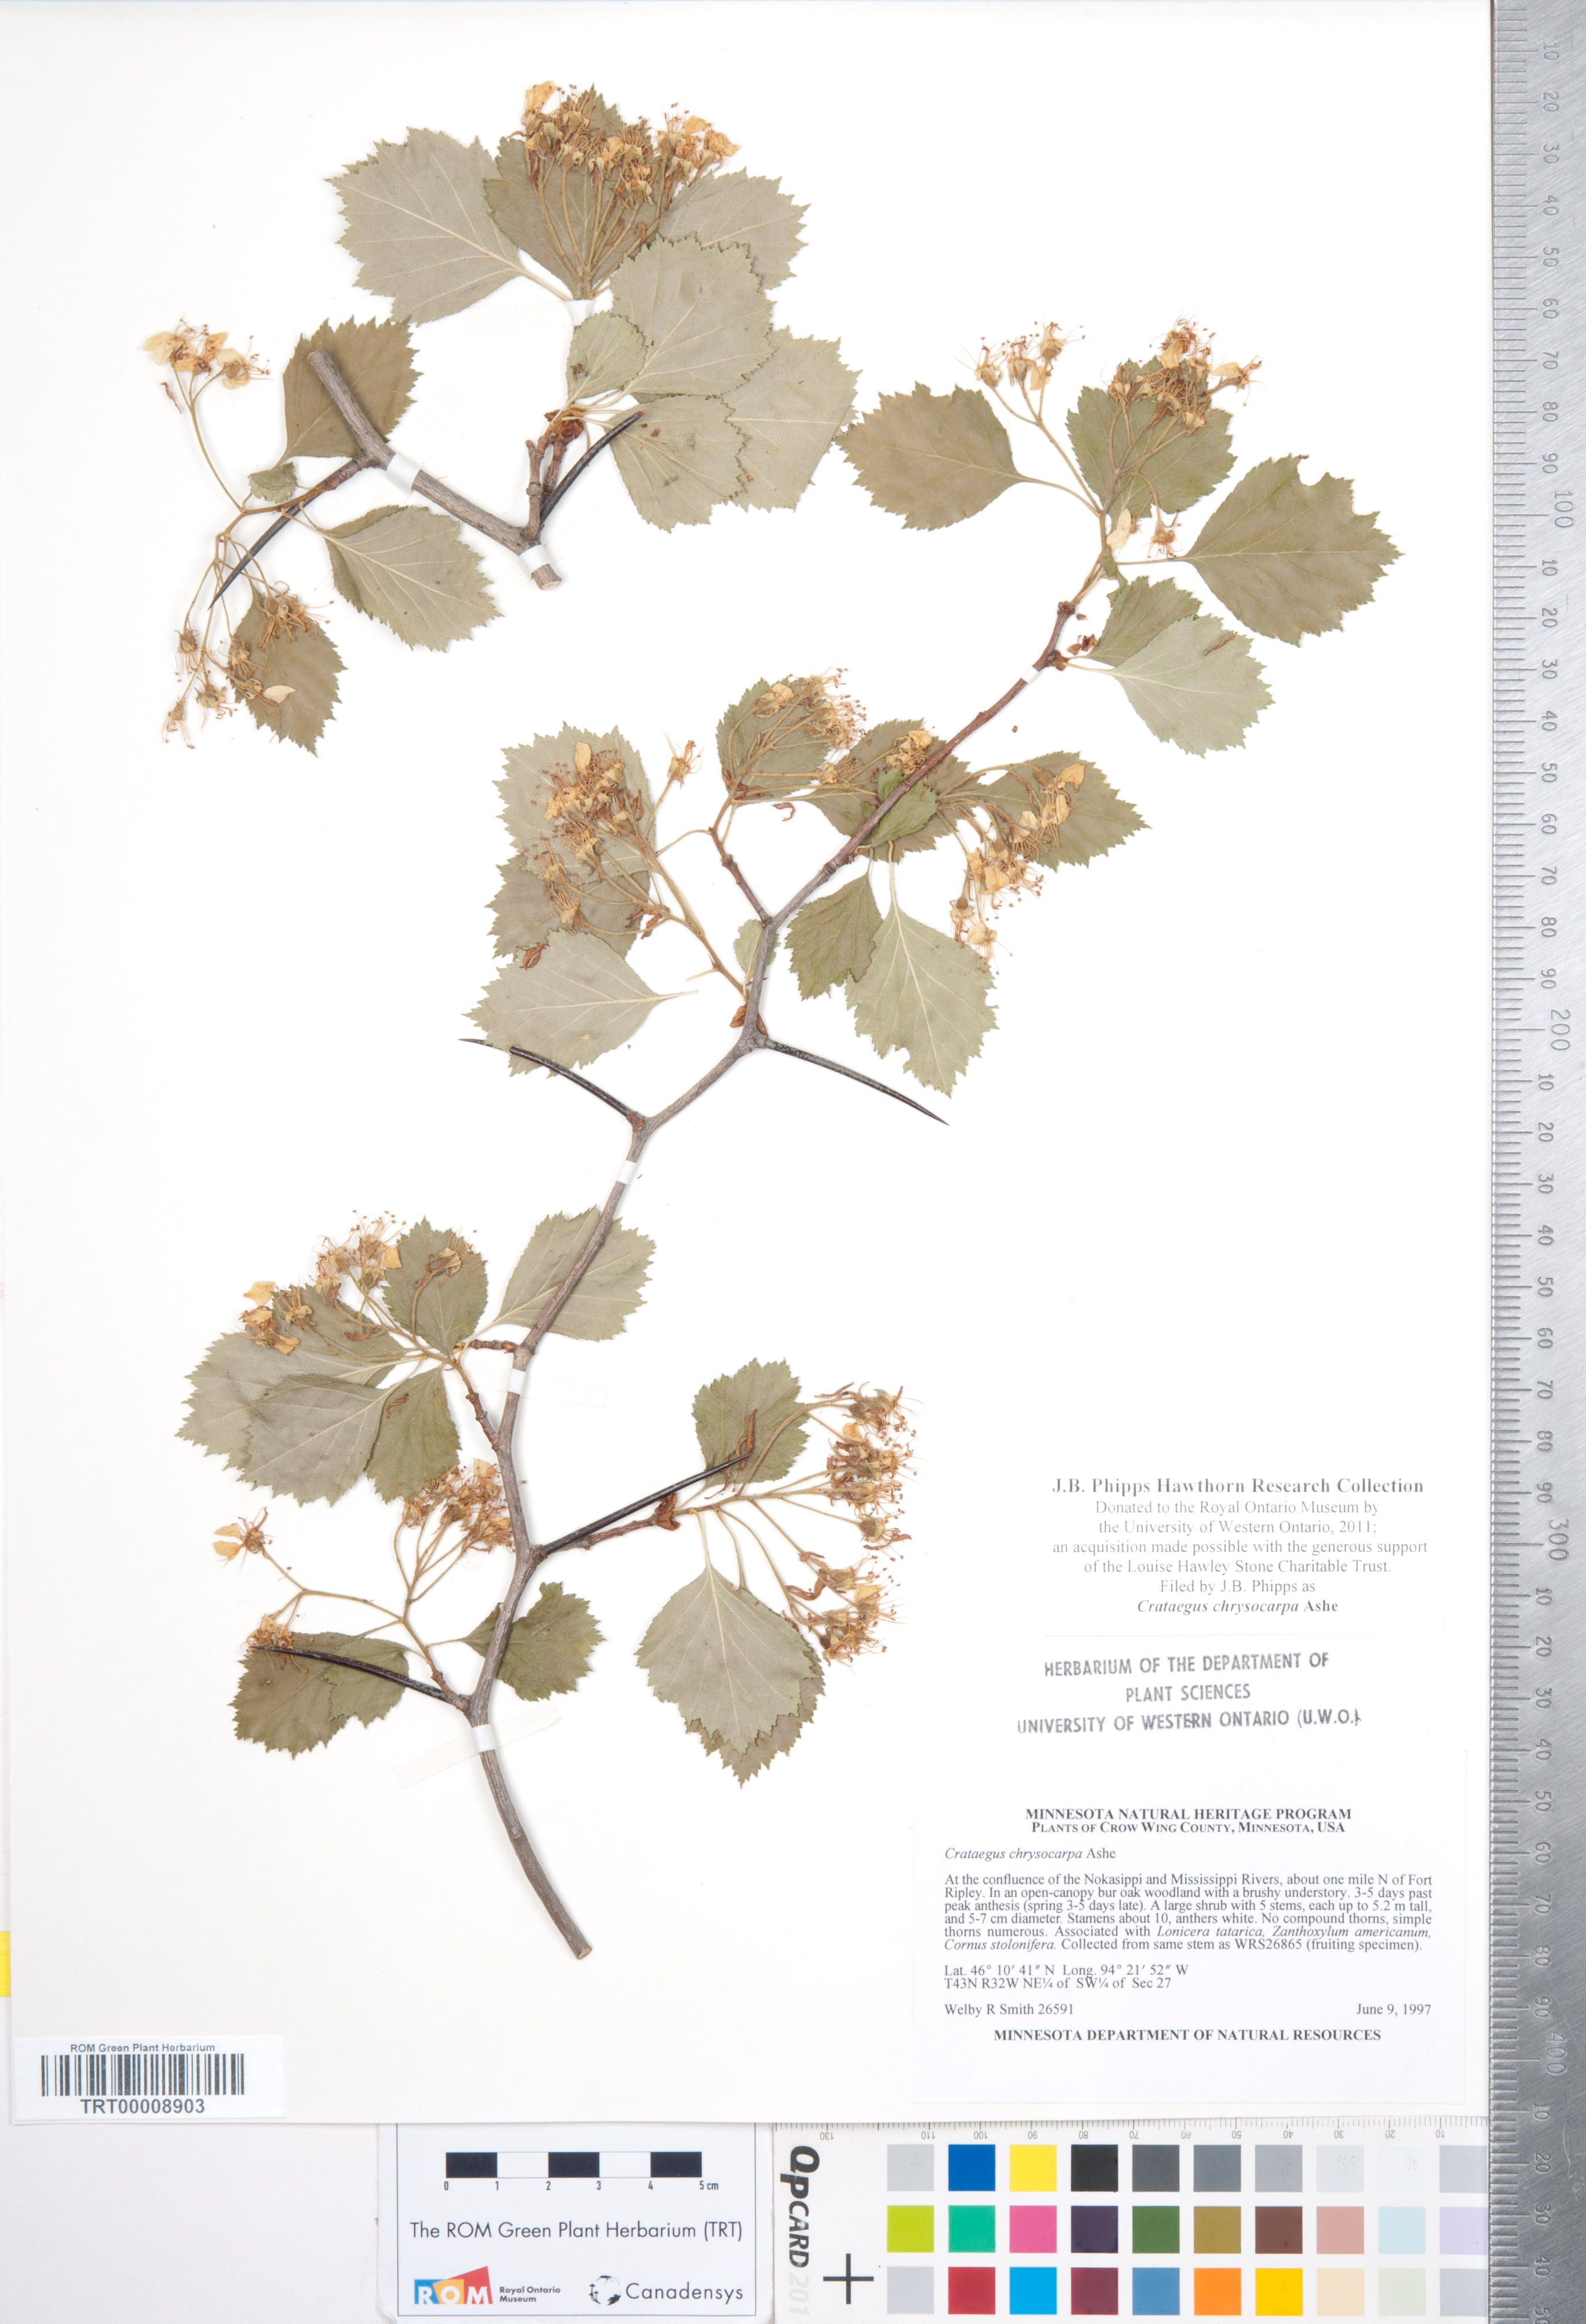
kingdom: Plantae
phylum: Tracheophyta
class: Magnoliopsida
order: Rosales
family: Rosaceae
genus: Crataegus
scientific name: Crataegus chrysocarpa
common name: Fire-berry hawthorn
